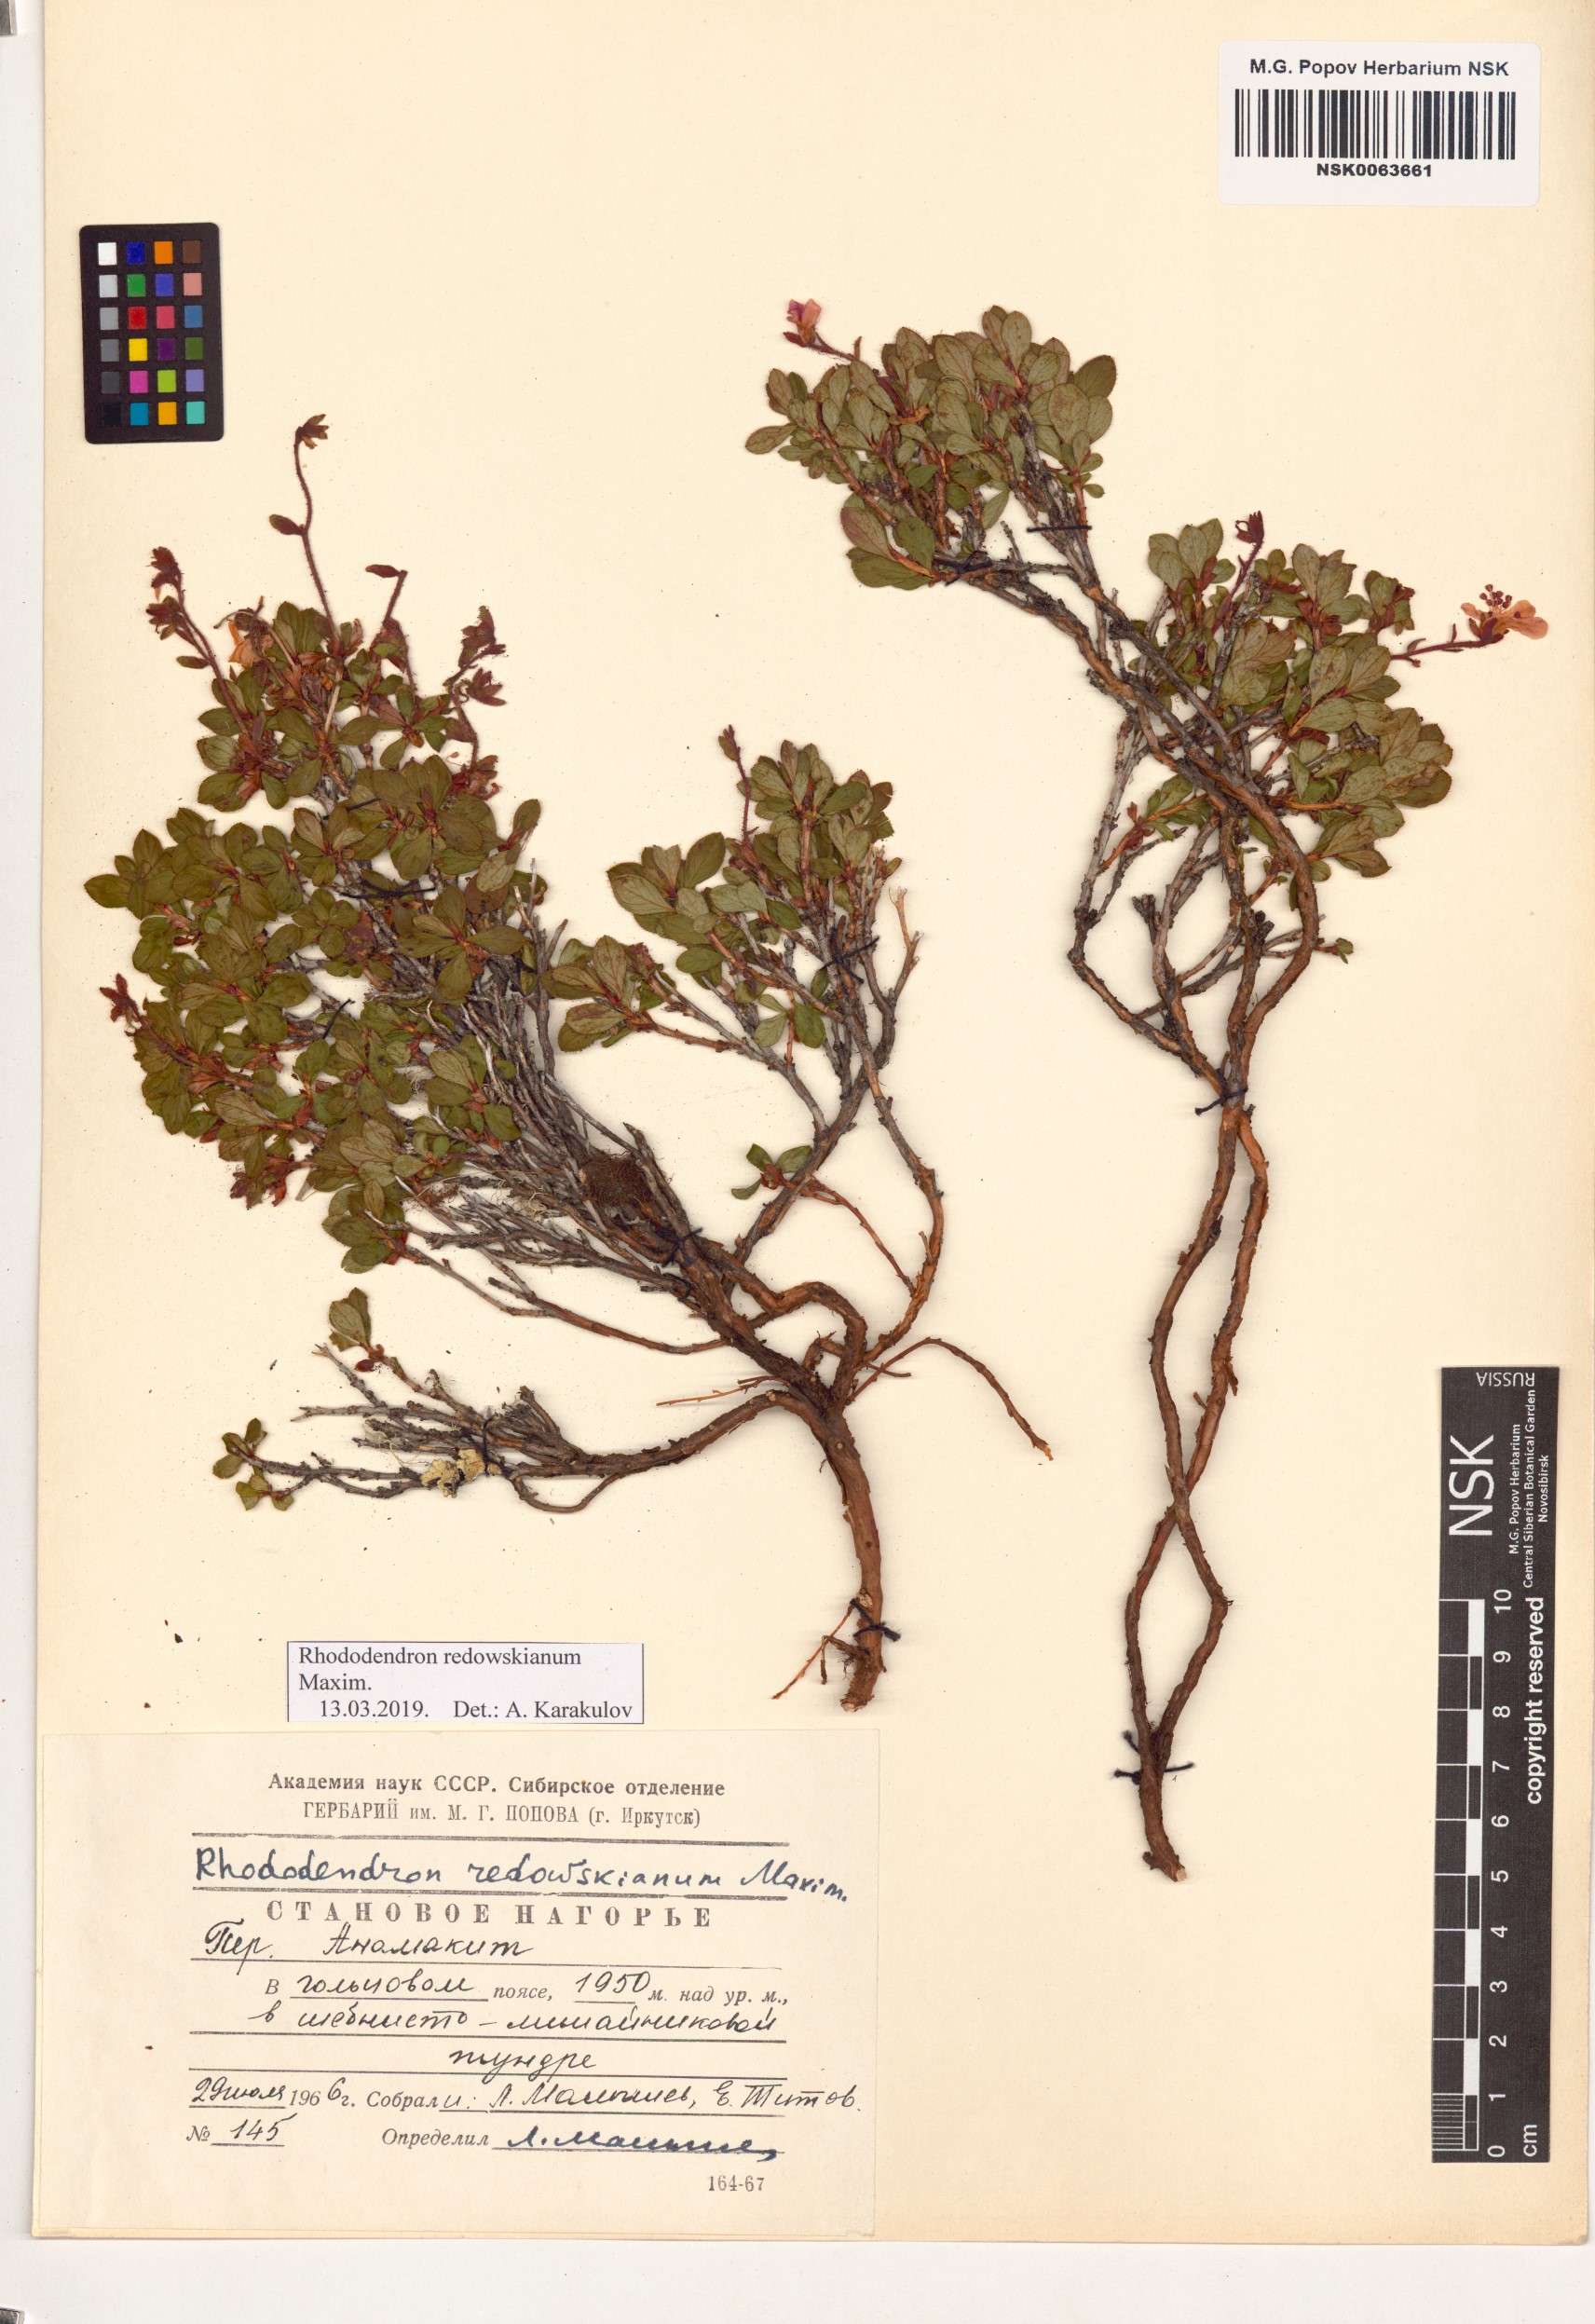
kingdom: Plantae
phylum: Tracheophyta
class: Magnoliopsida
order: Ericales
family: Ericaceae
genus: Rhododendron
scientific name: Rhododendron redowskianum
